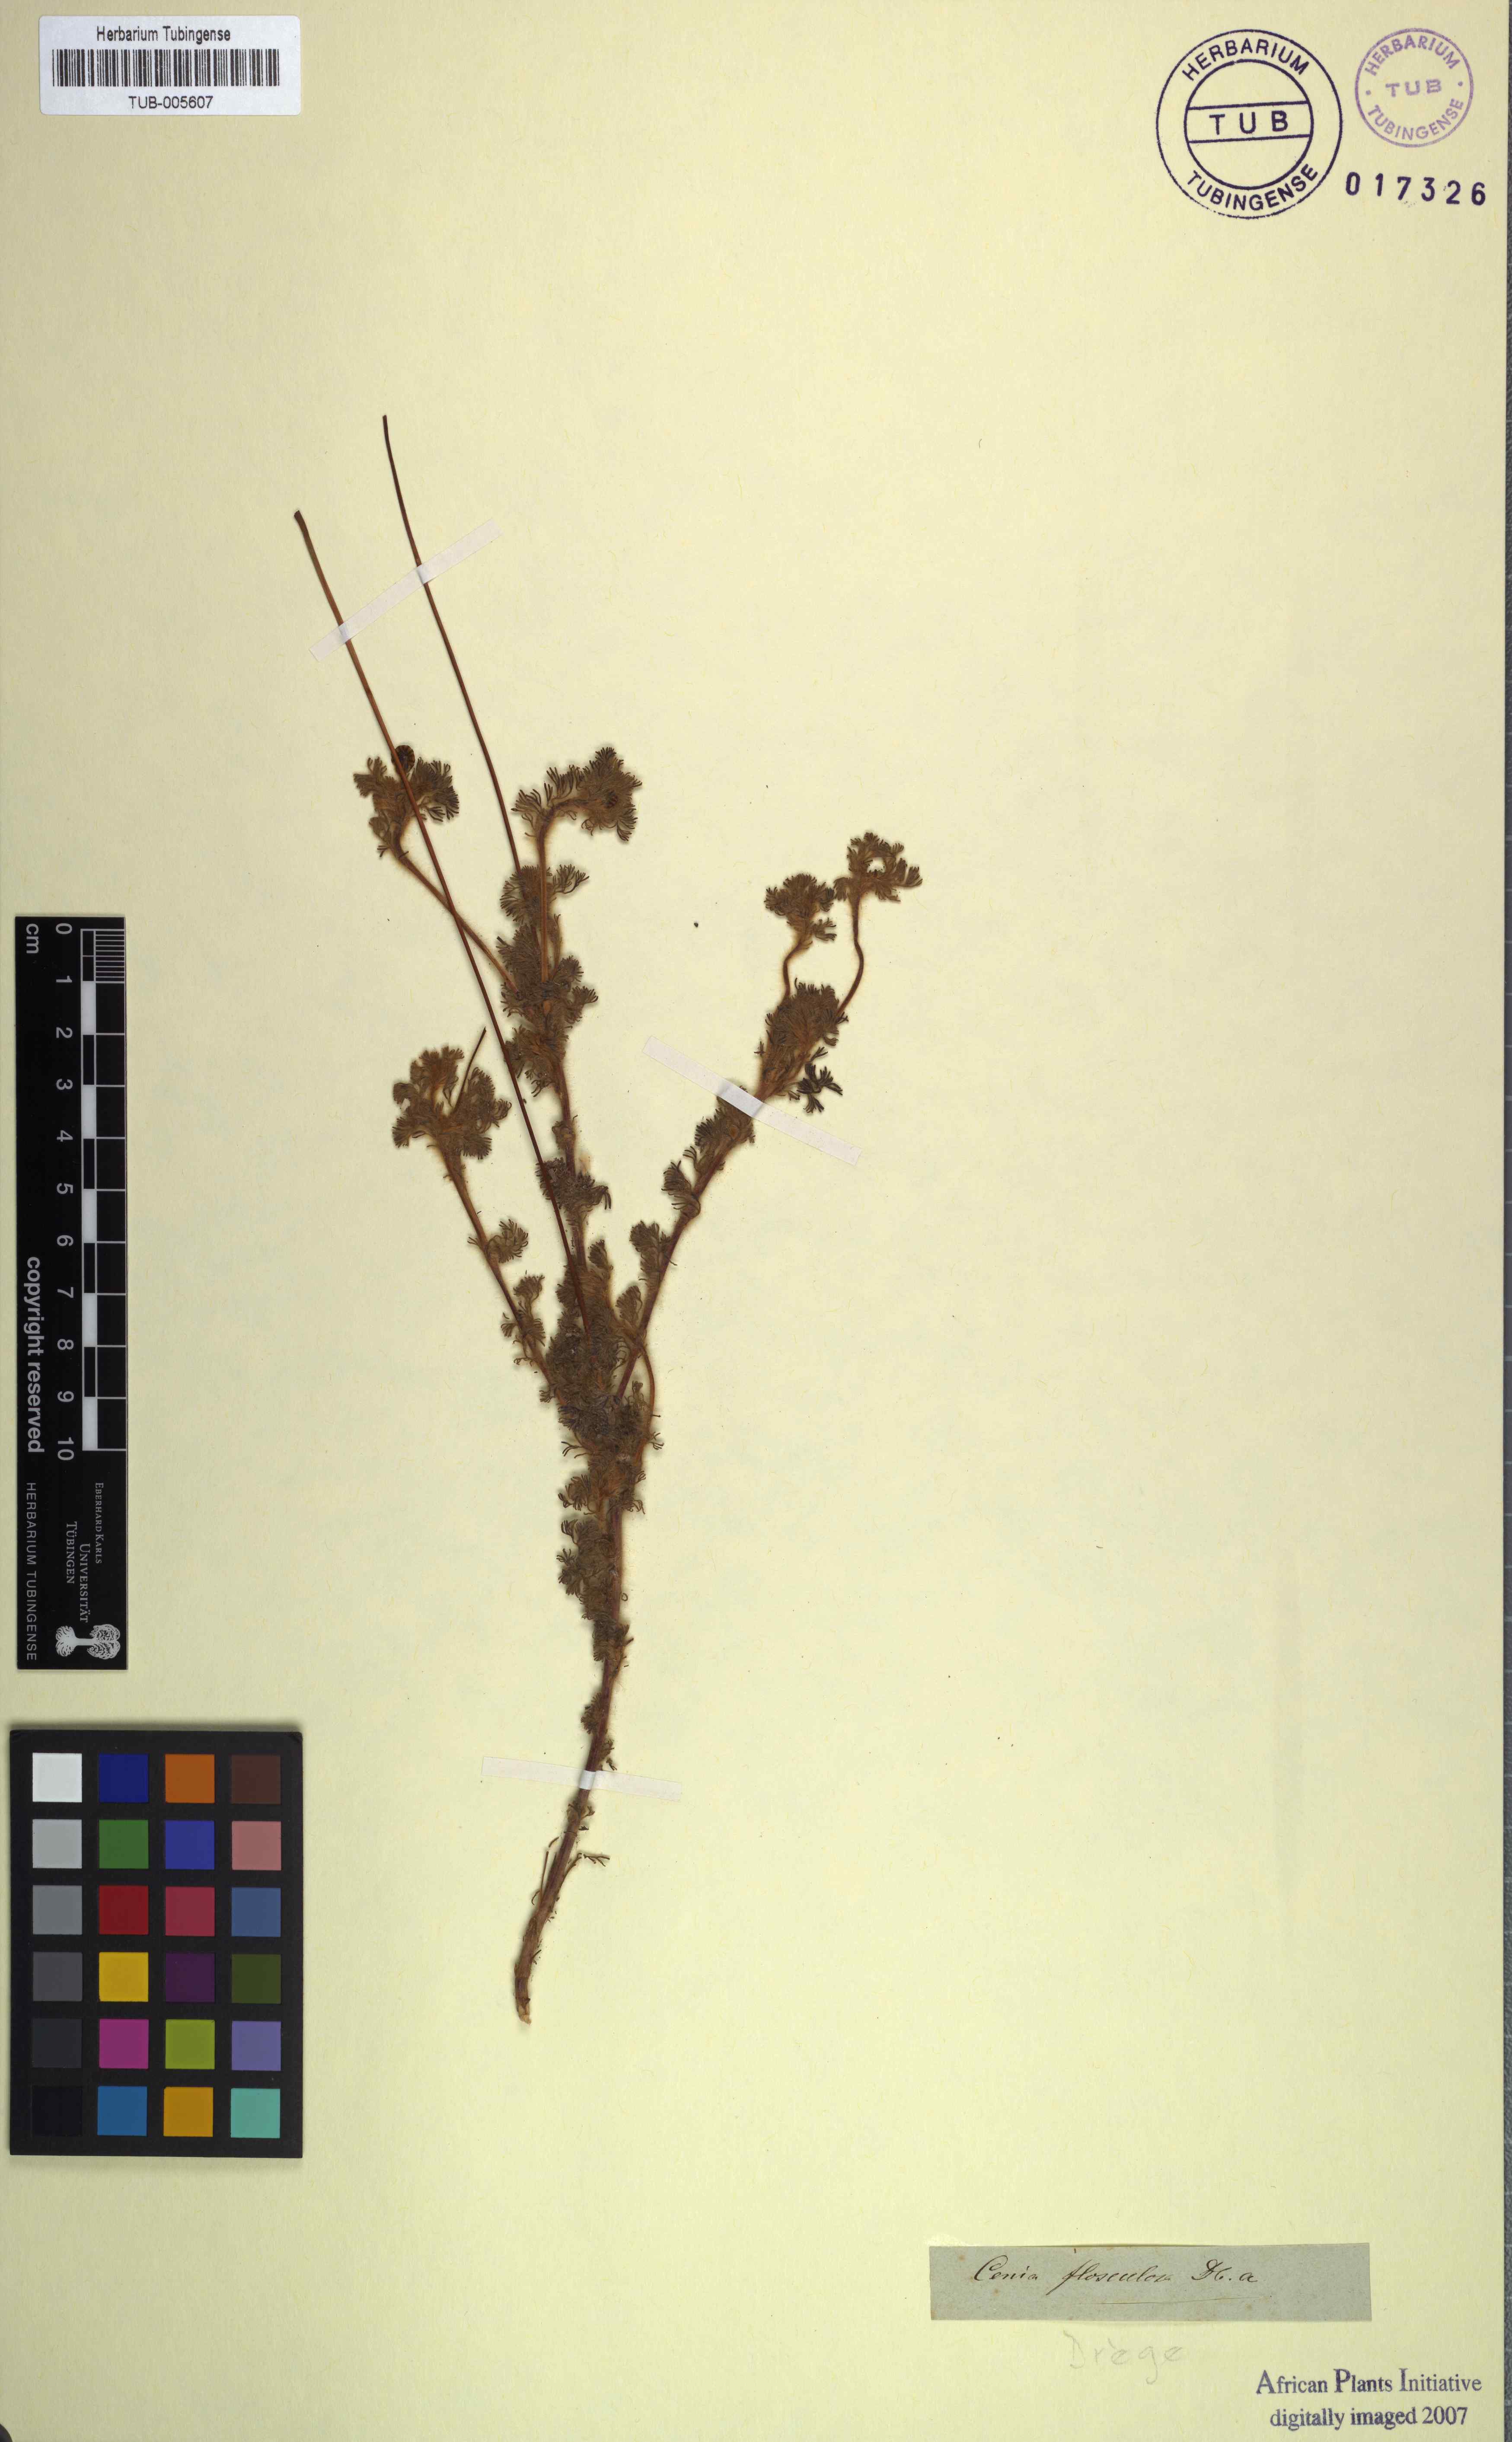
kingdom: Plantae
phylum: Tracheophyta
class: Magnoliopsida
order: Asterales
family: Asteraceae
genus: Cotula
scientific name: Cotula microglossa
